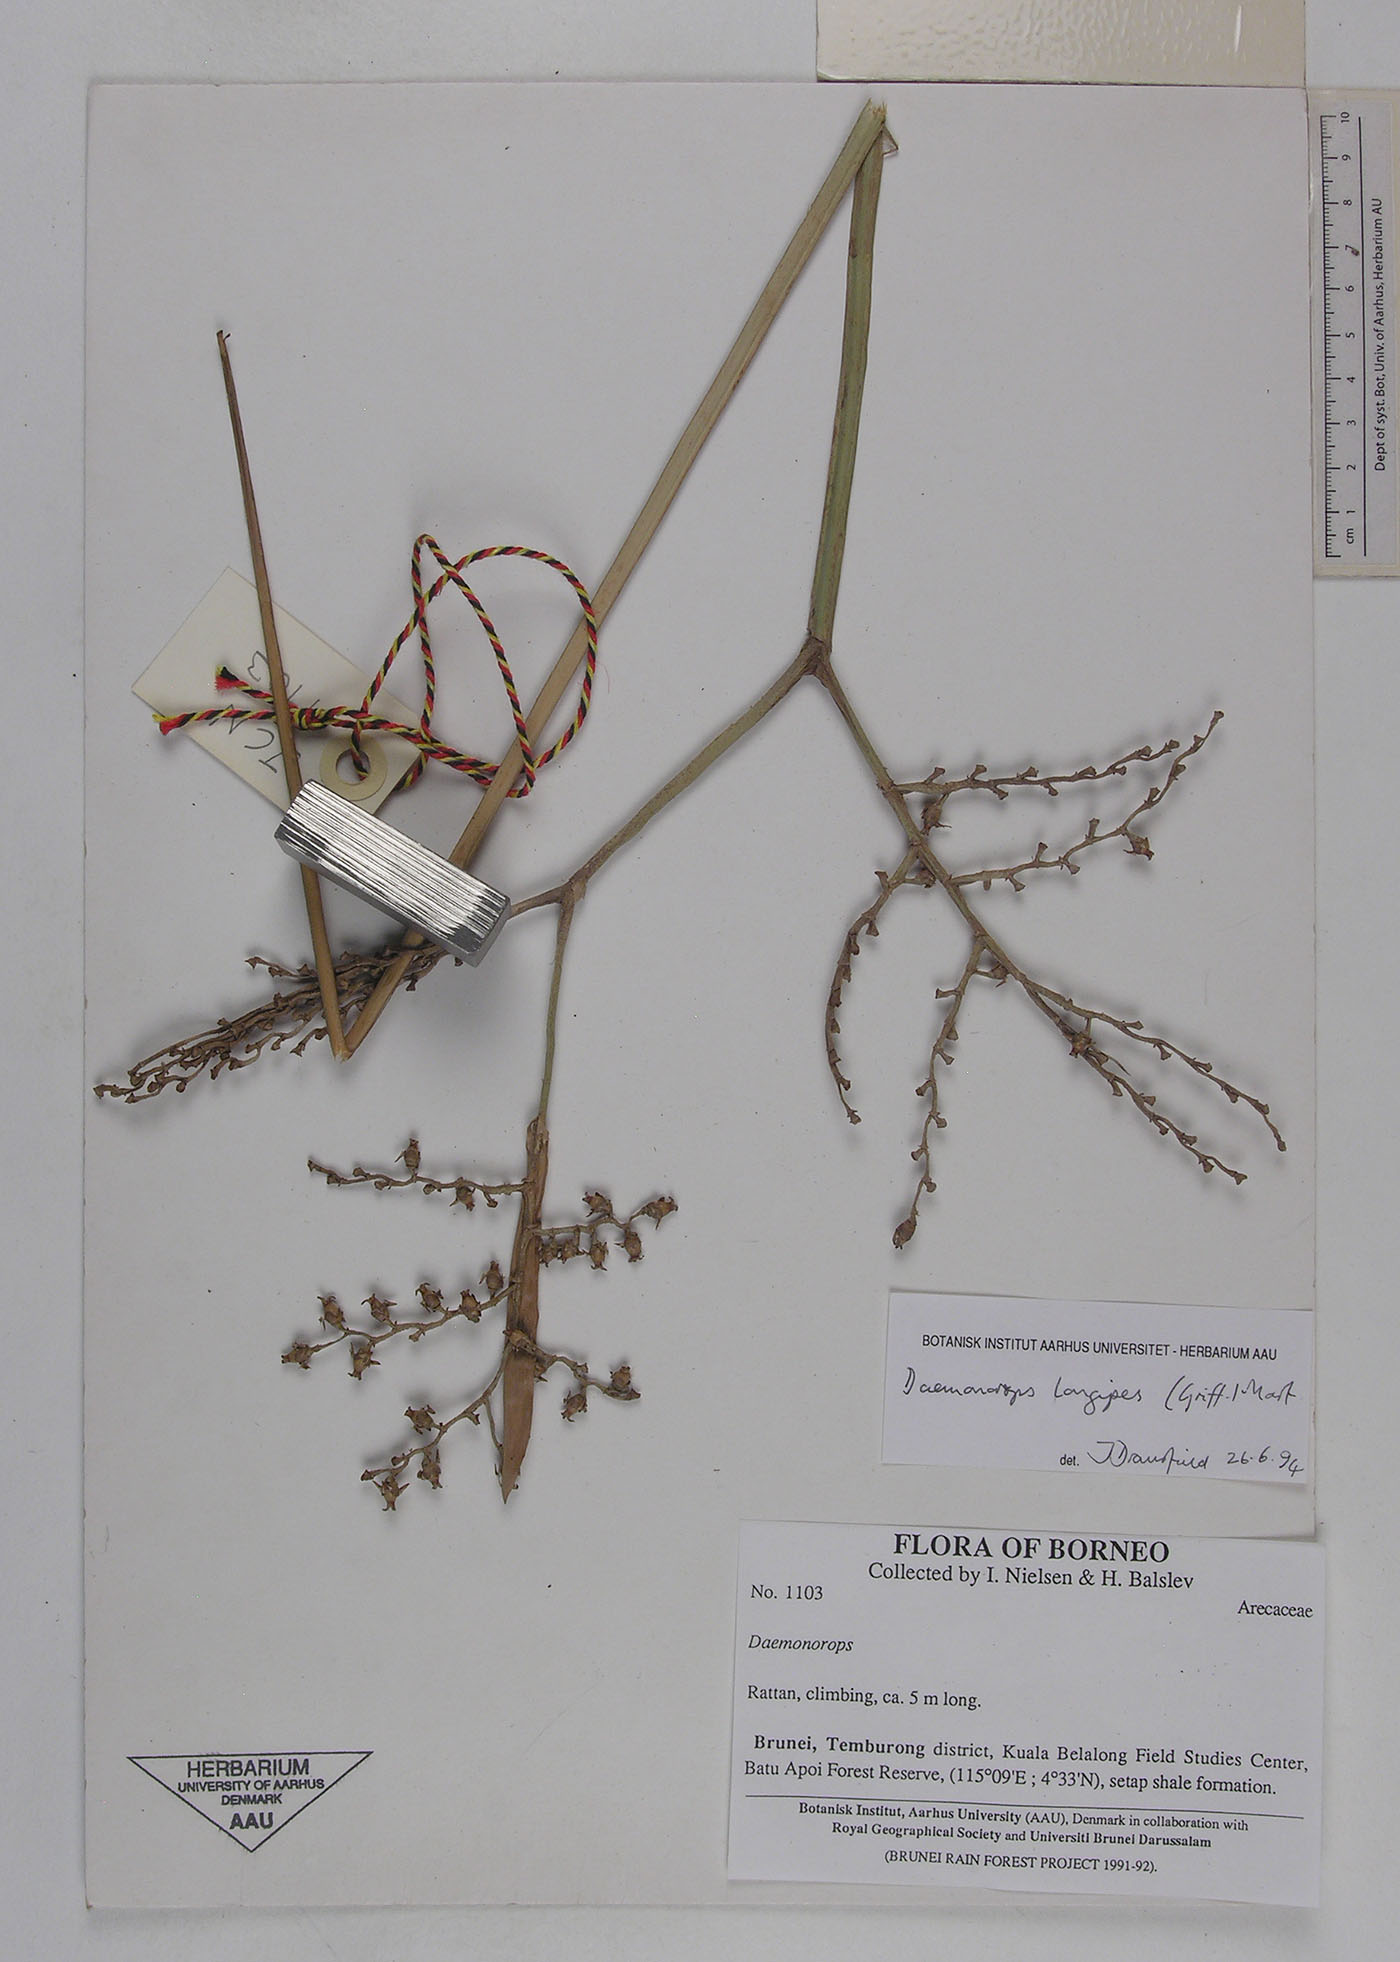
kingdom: Plantae
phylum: Tracheophyta
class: Liliopsida
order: Arecales
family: Arecaceae
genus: Calamus
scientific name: Calamus longipes
